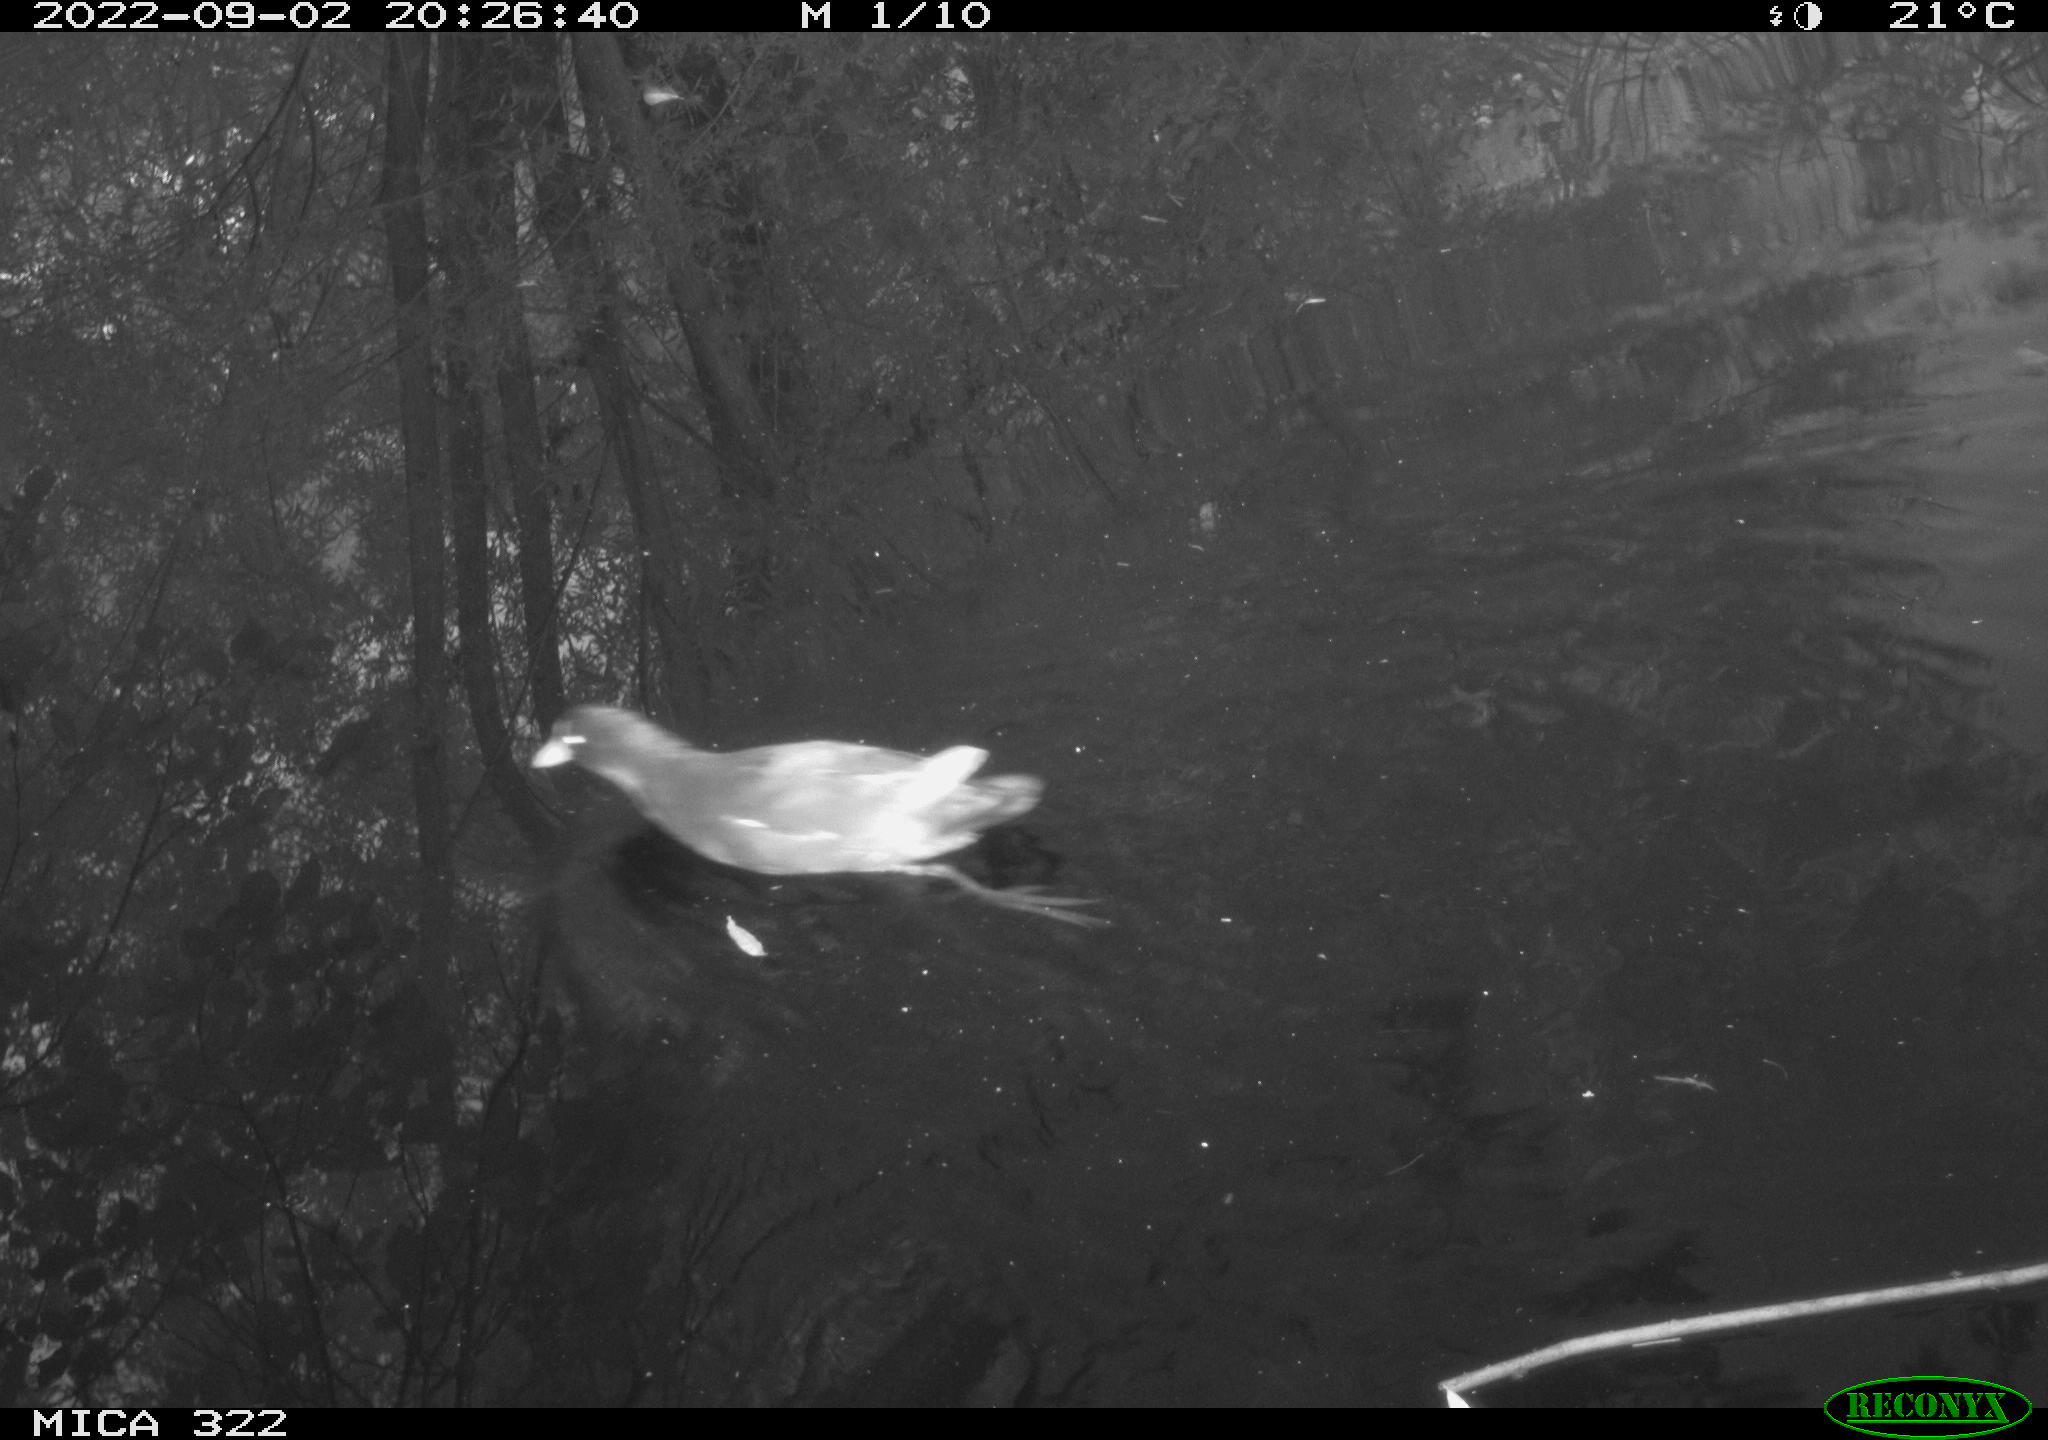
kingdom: Animalia
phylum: Chordata
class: Aves
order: Gruiformes
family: Rallidae
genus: Gallinula
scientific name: Gallinula chloropus
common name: Common moorhen
